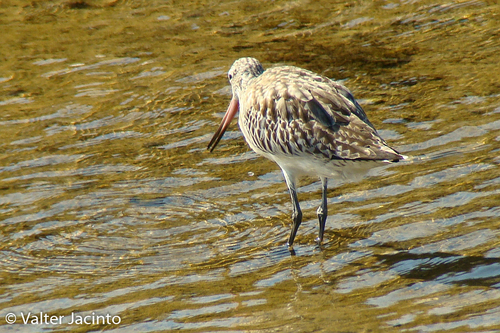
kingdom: Animalia
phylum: Chordata
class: Aves
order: Charadriiformes
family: Scolopacidae
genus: Limosa
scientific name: Limosa lapponica
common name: Bar-tailed godwit
